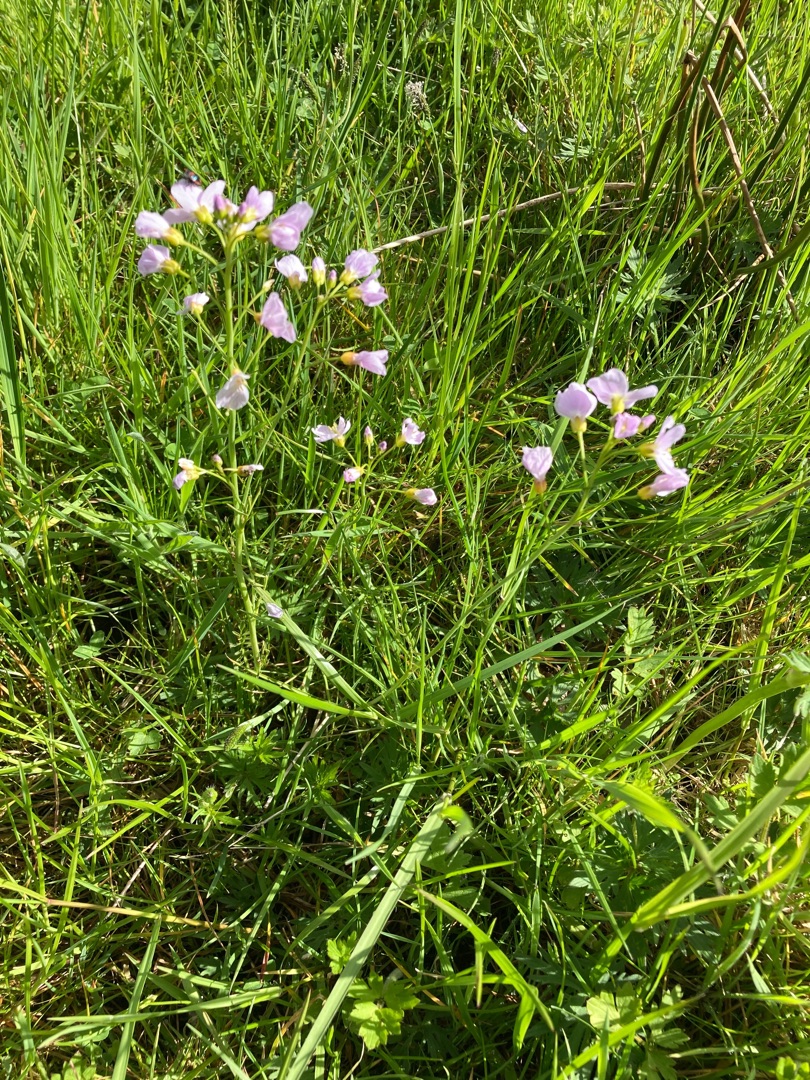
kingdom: Plantae
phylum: Tracheophyta
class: Magnoliopsida
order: Brassicales
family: Brassicaceae
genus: Cardamine
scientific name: Cardamine pratensis
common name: Engkarse
